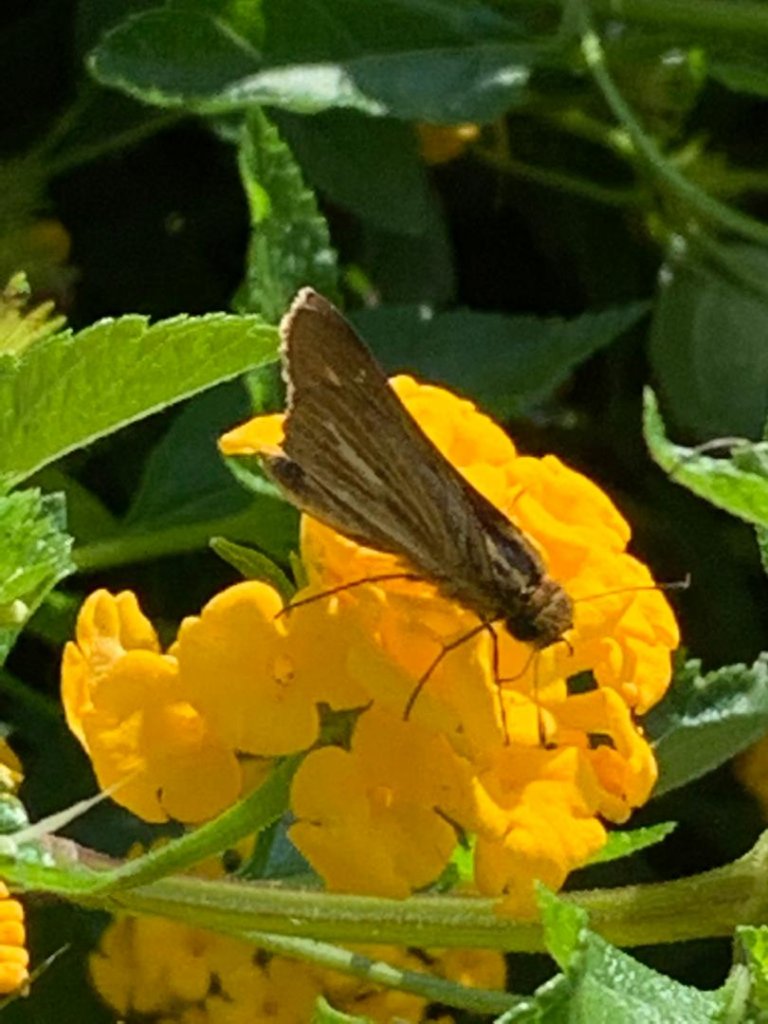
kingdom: Animalia
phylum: Arthropoda
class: Insecta
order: Lepidoptera
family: Hesperiidae
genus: Panoquina
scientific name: Panoquina panoquin
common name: Salt Marsh Skipper
